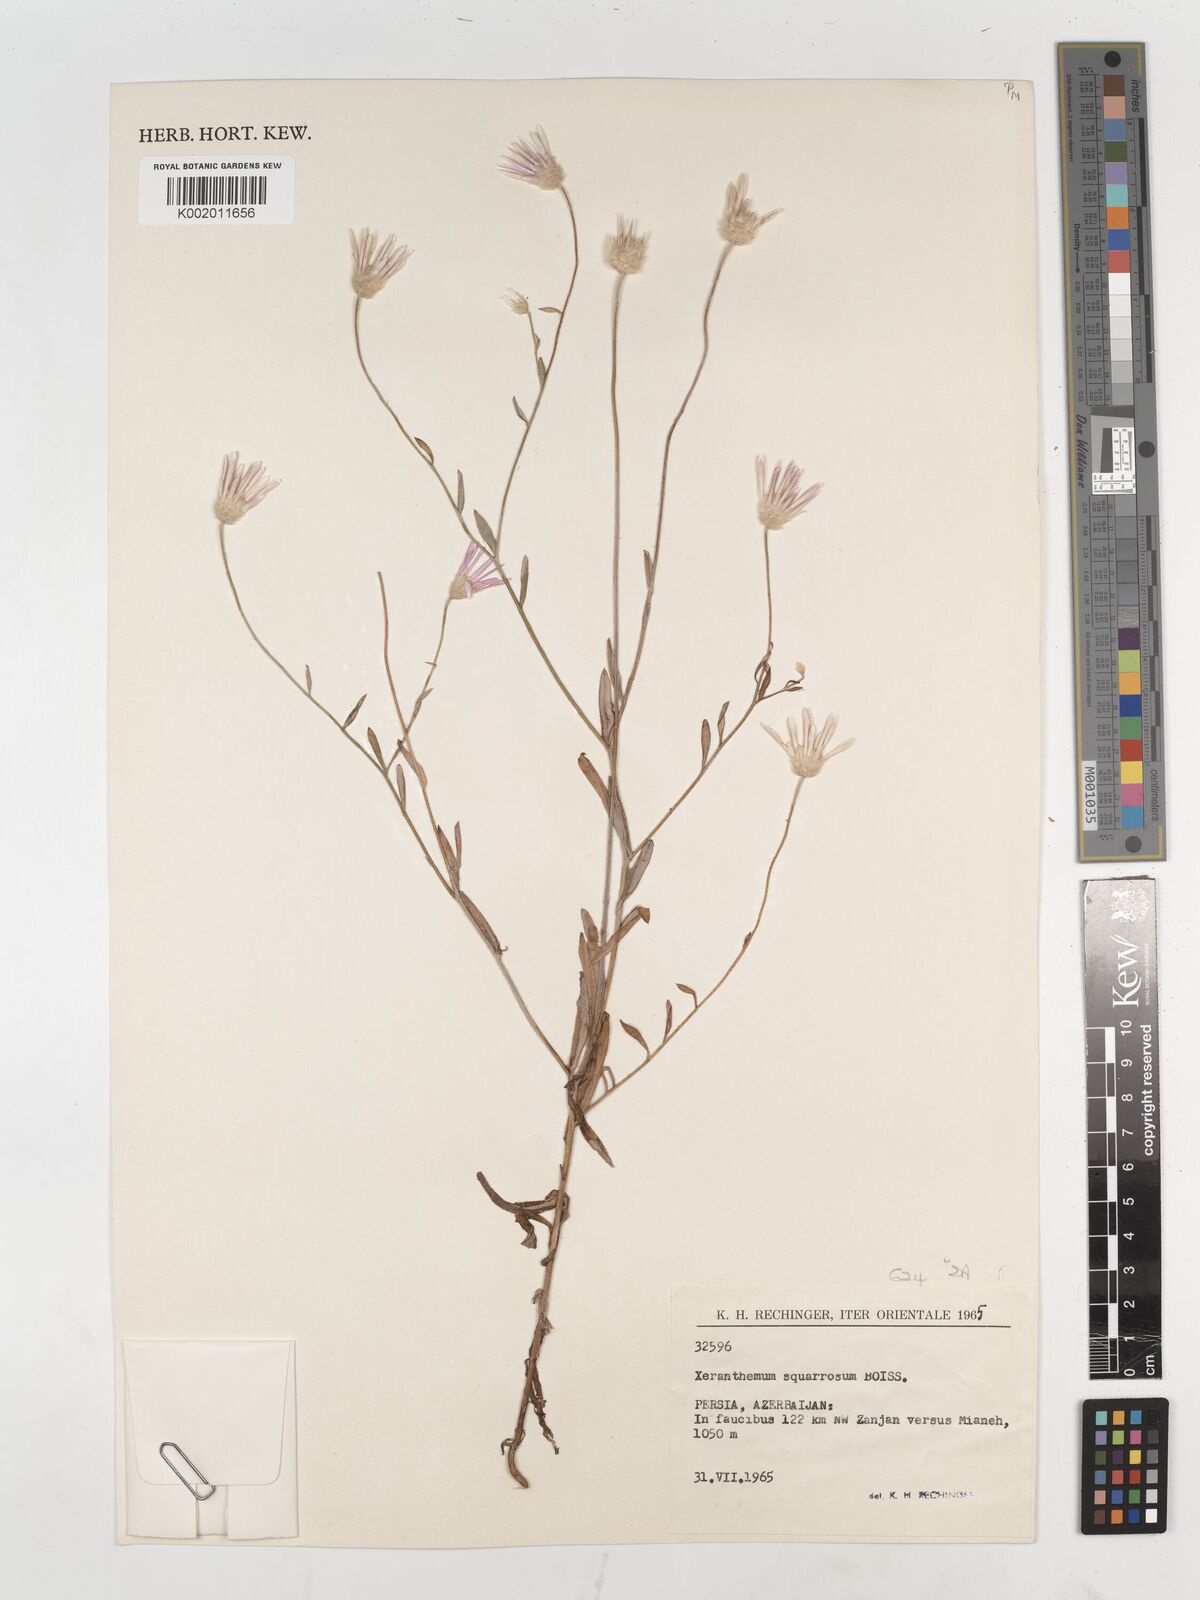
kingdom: Plantae
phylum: Tracheophyta
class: Magnoliopsida
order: Asterales
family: Asteraceae
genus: Xeranthemum
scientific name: Xeranthemum squarrosum
